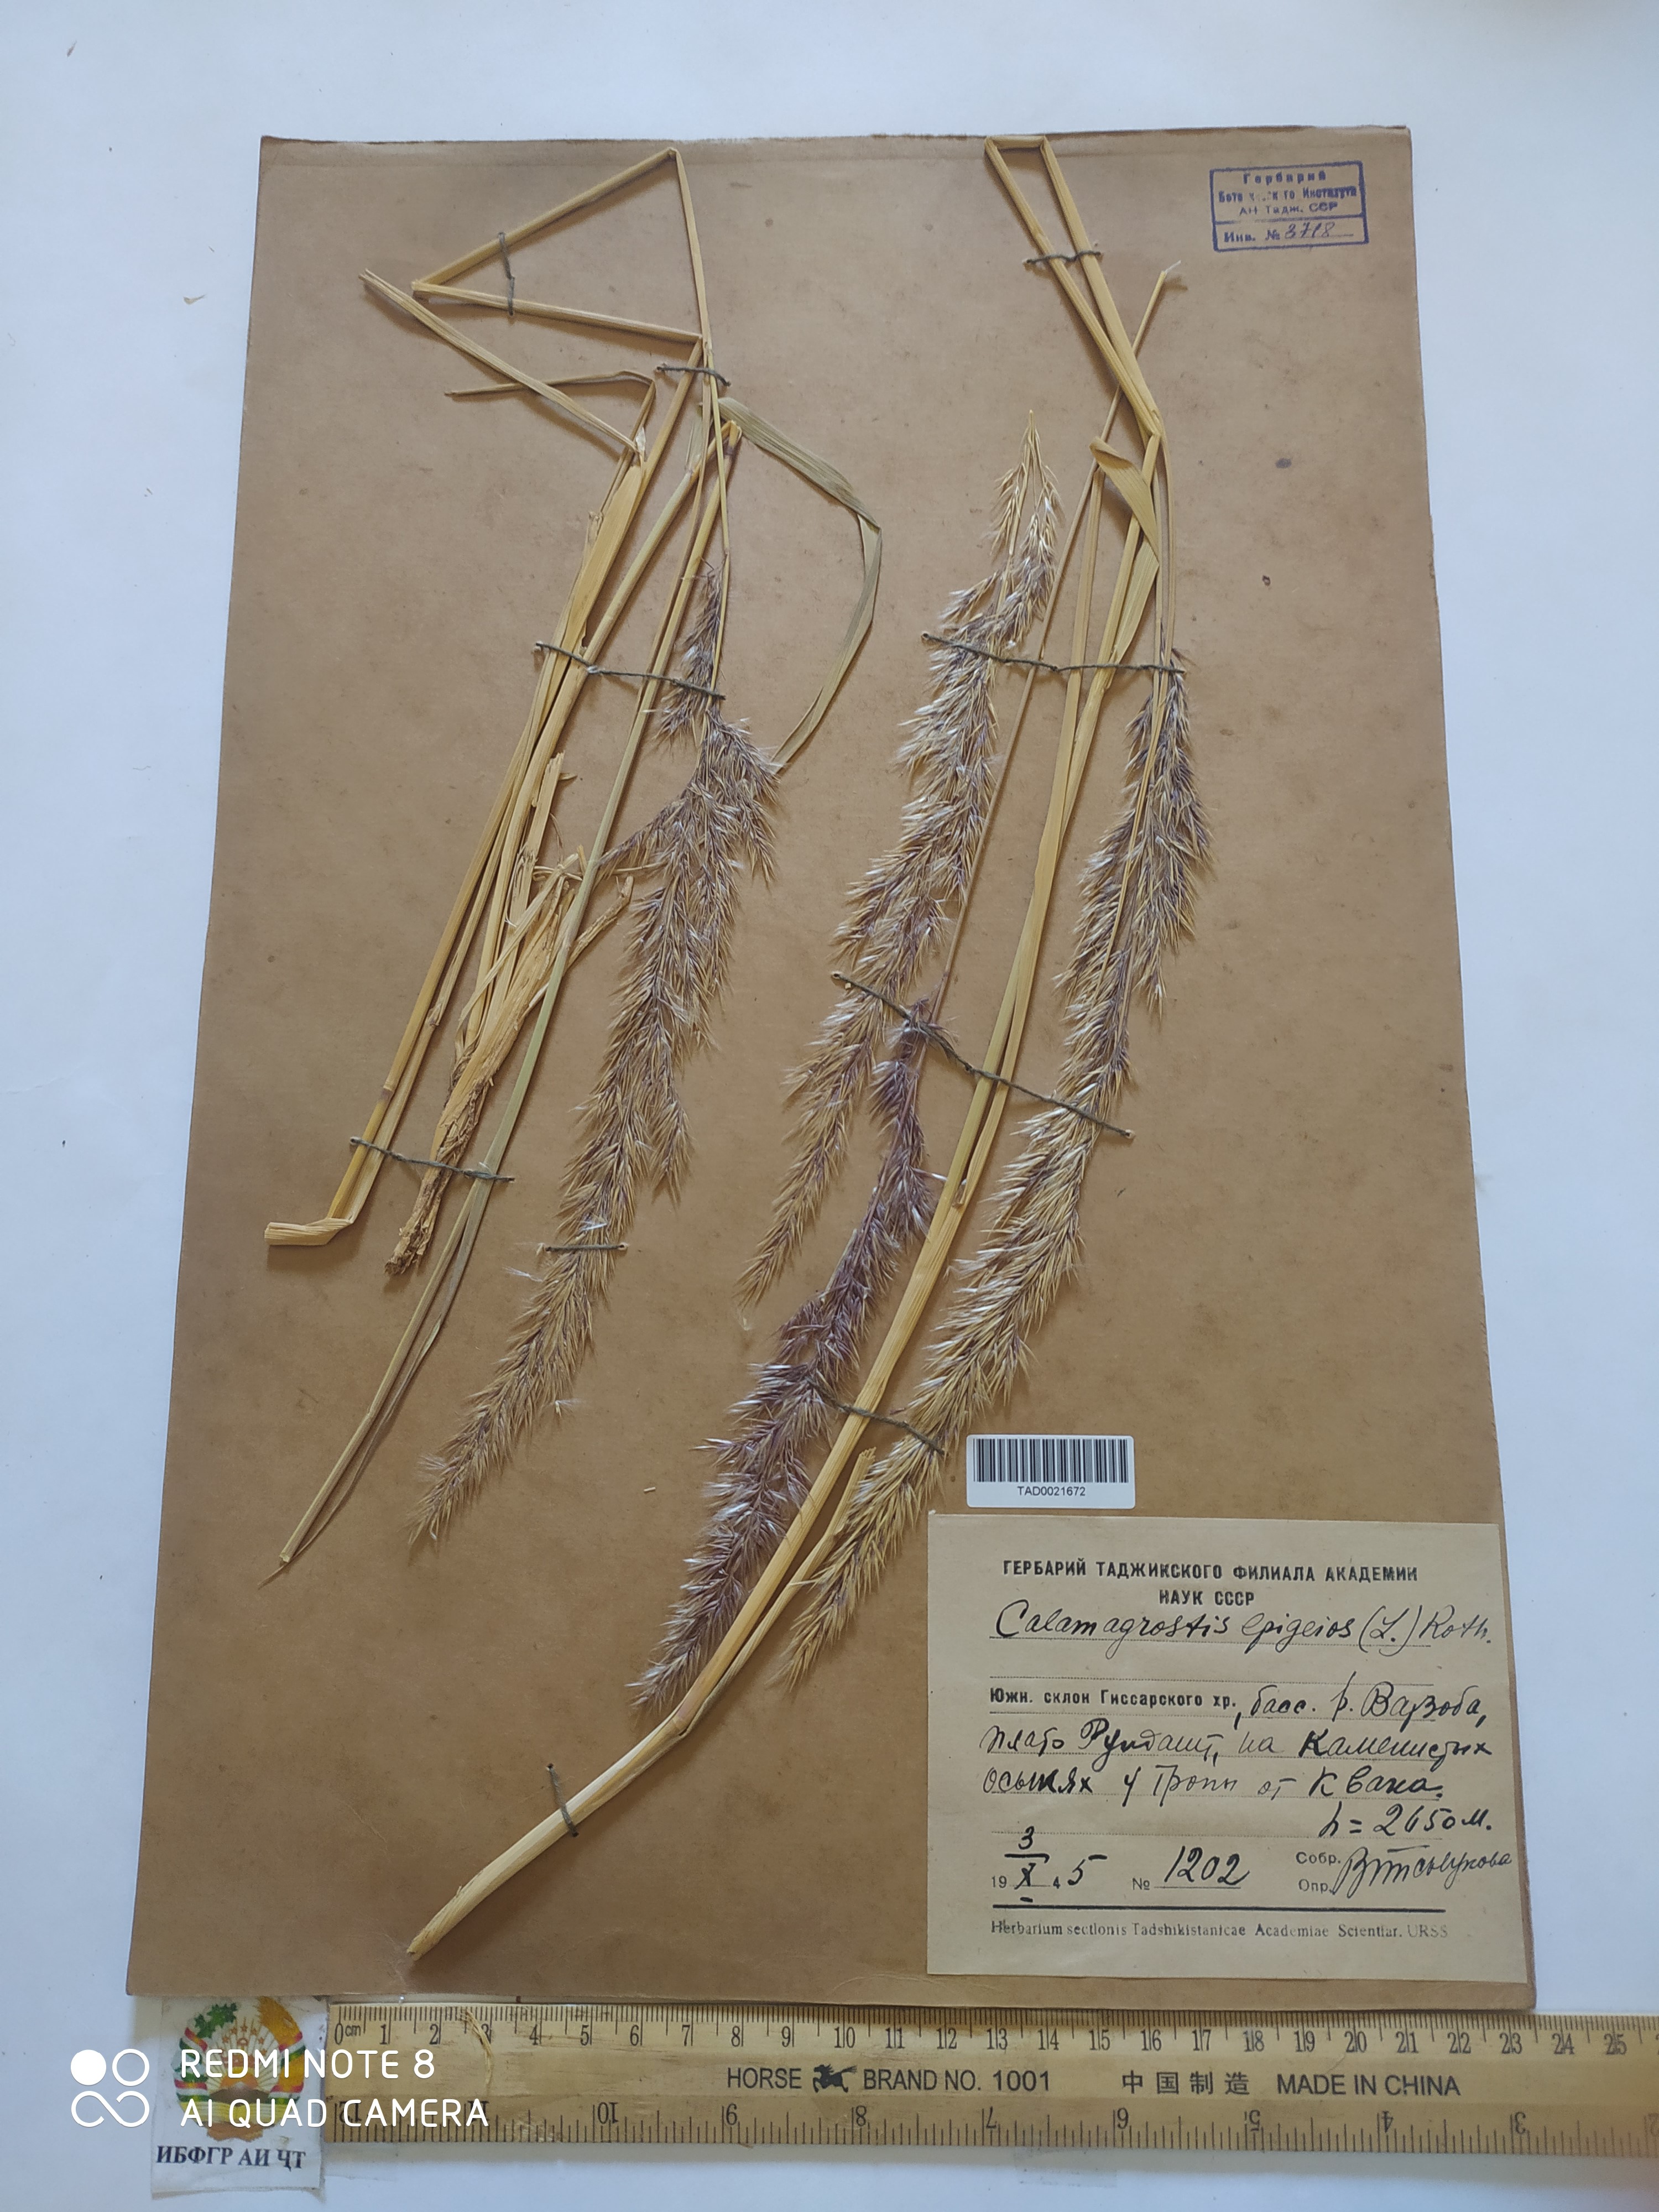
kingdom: Plantae
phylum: Tracheophyta
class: Liliopsida
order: Poales
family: Poaceae
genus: Calamagrostis
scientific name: Calamagrostis epigejos
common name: Wood small-reed
